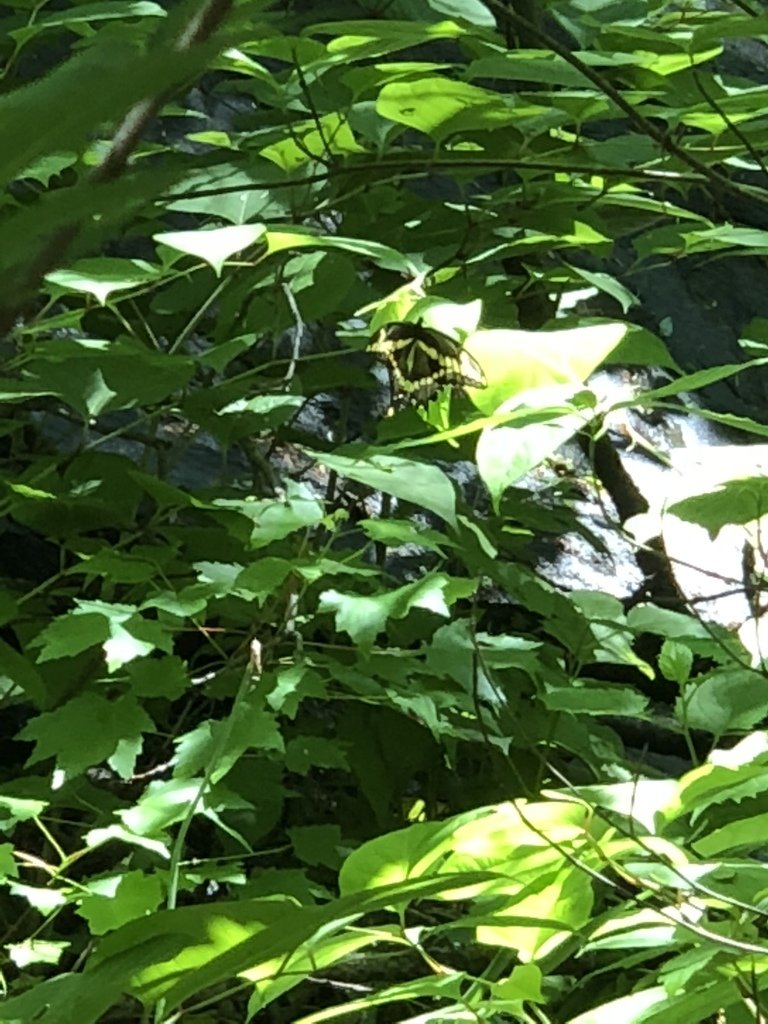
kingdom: Animalia
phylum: Arthropoda
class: Insecta
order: Lepidoptera
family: Papilionidae
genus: Papilio
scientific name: Papilio cresphontes
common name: Eastern Giant Swallowtail
